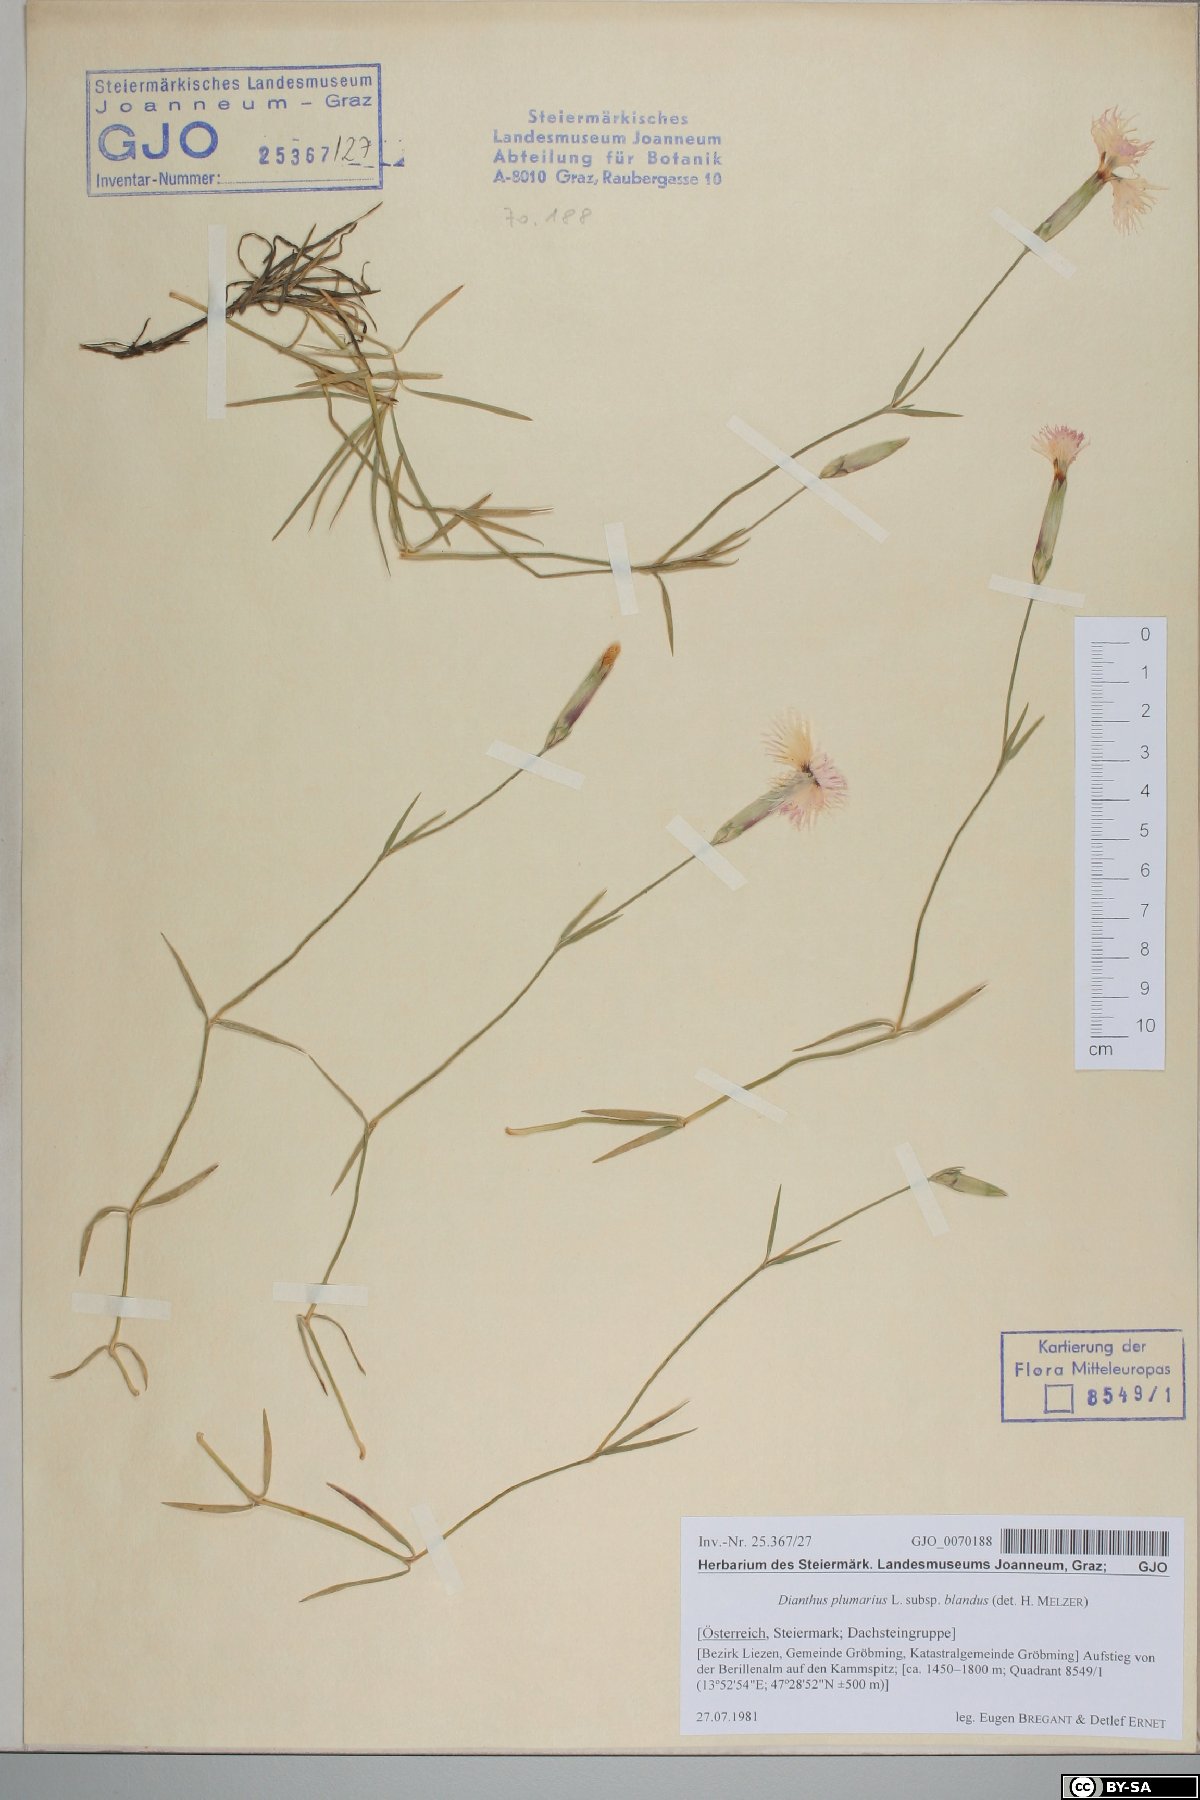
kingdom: Plantae
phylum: Tracheophyta
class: Magnoliopsida
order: Caryophyllales
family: Caryophyllaceae
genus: Dianthus
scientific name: Dianthus plumarius
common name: Pink
